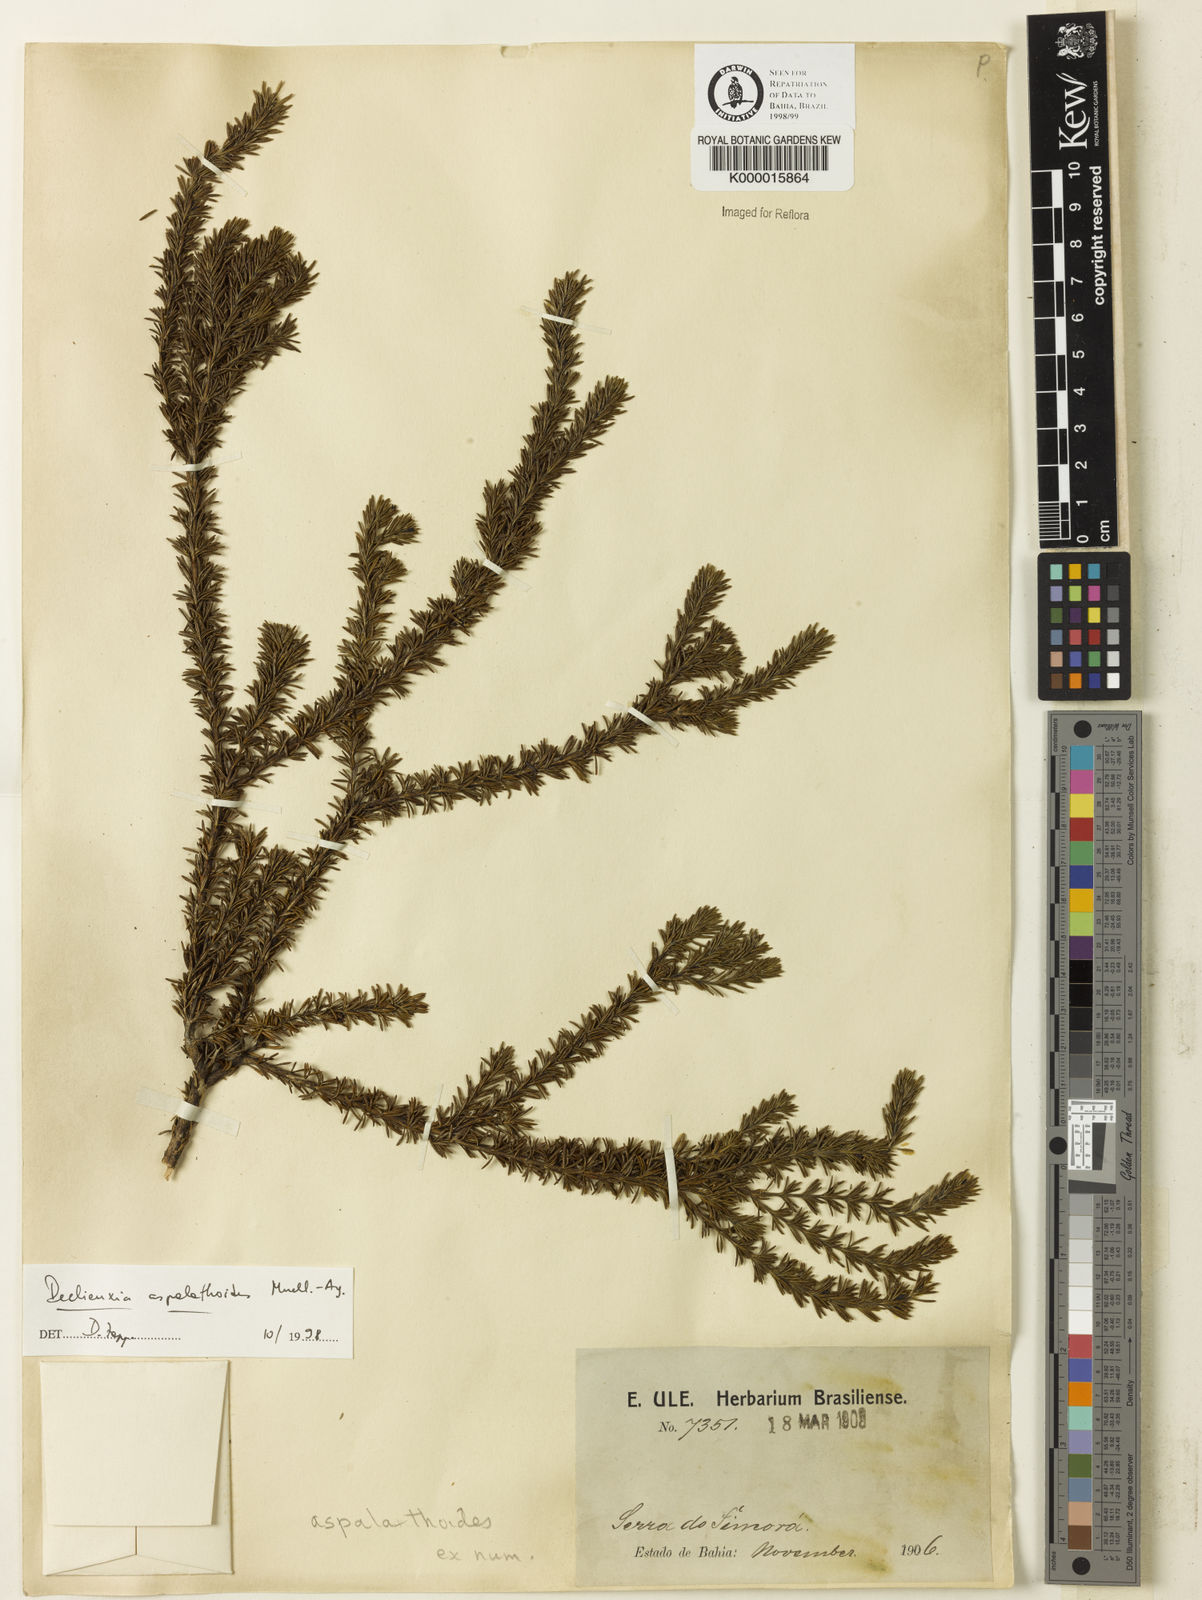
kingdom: Plantae
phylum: Tracheophyta
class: Magnoliopsida
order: Gentianales
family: Rubiaceae
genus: Declieuxia
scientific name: Declieuxia aspalathoides
